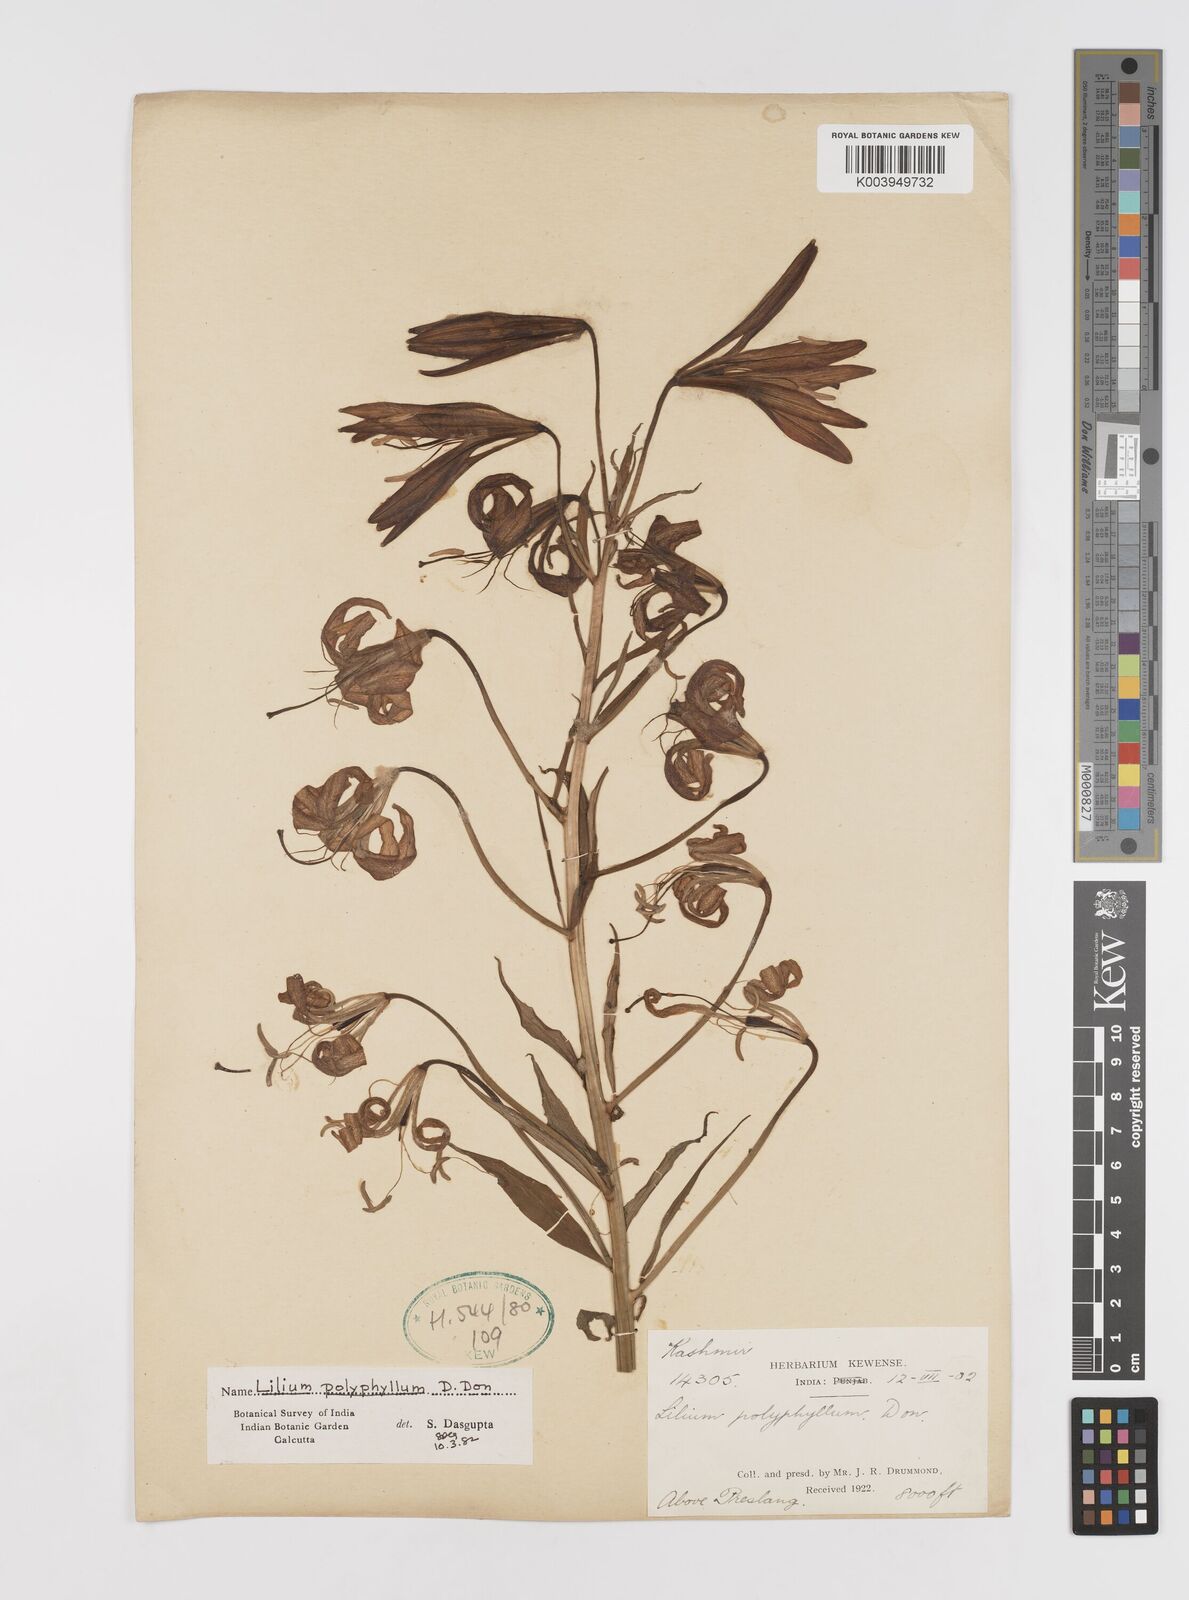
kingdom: Plantae
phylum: Tracheophyta
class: Liliopsida
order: Liliales
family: Liliaceae
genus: Lilium
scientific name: Lilium polyphyllum
